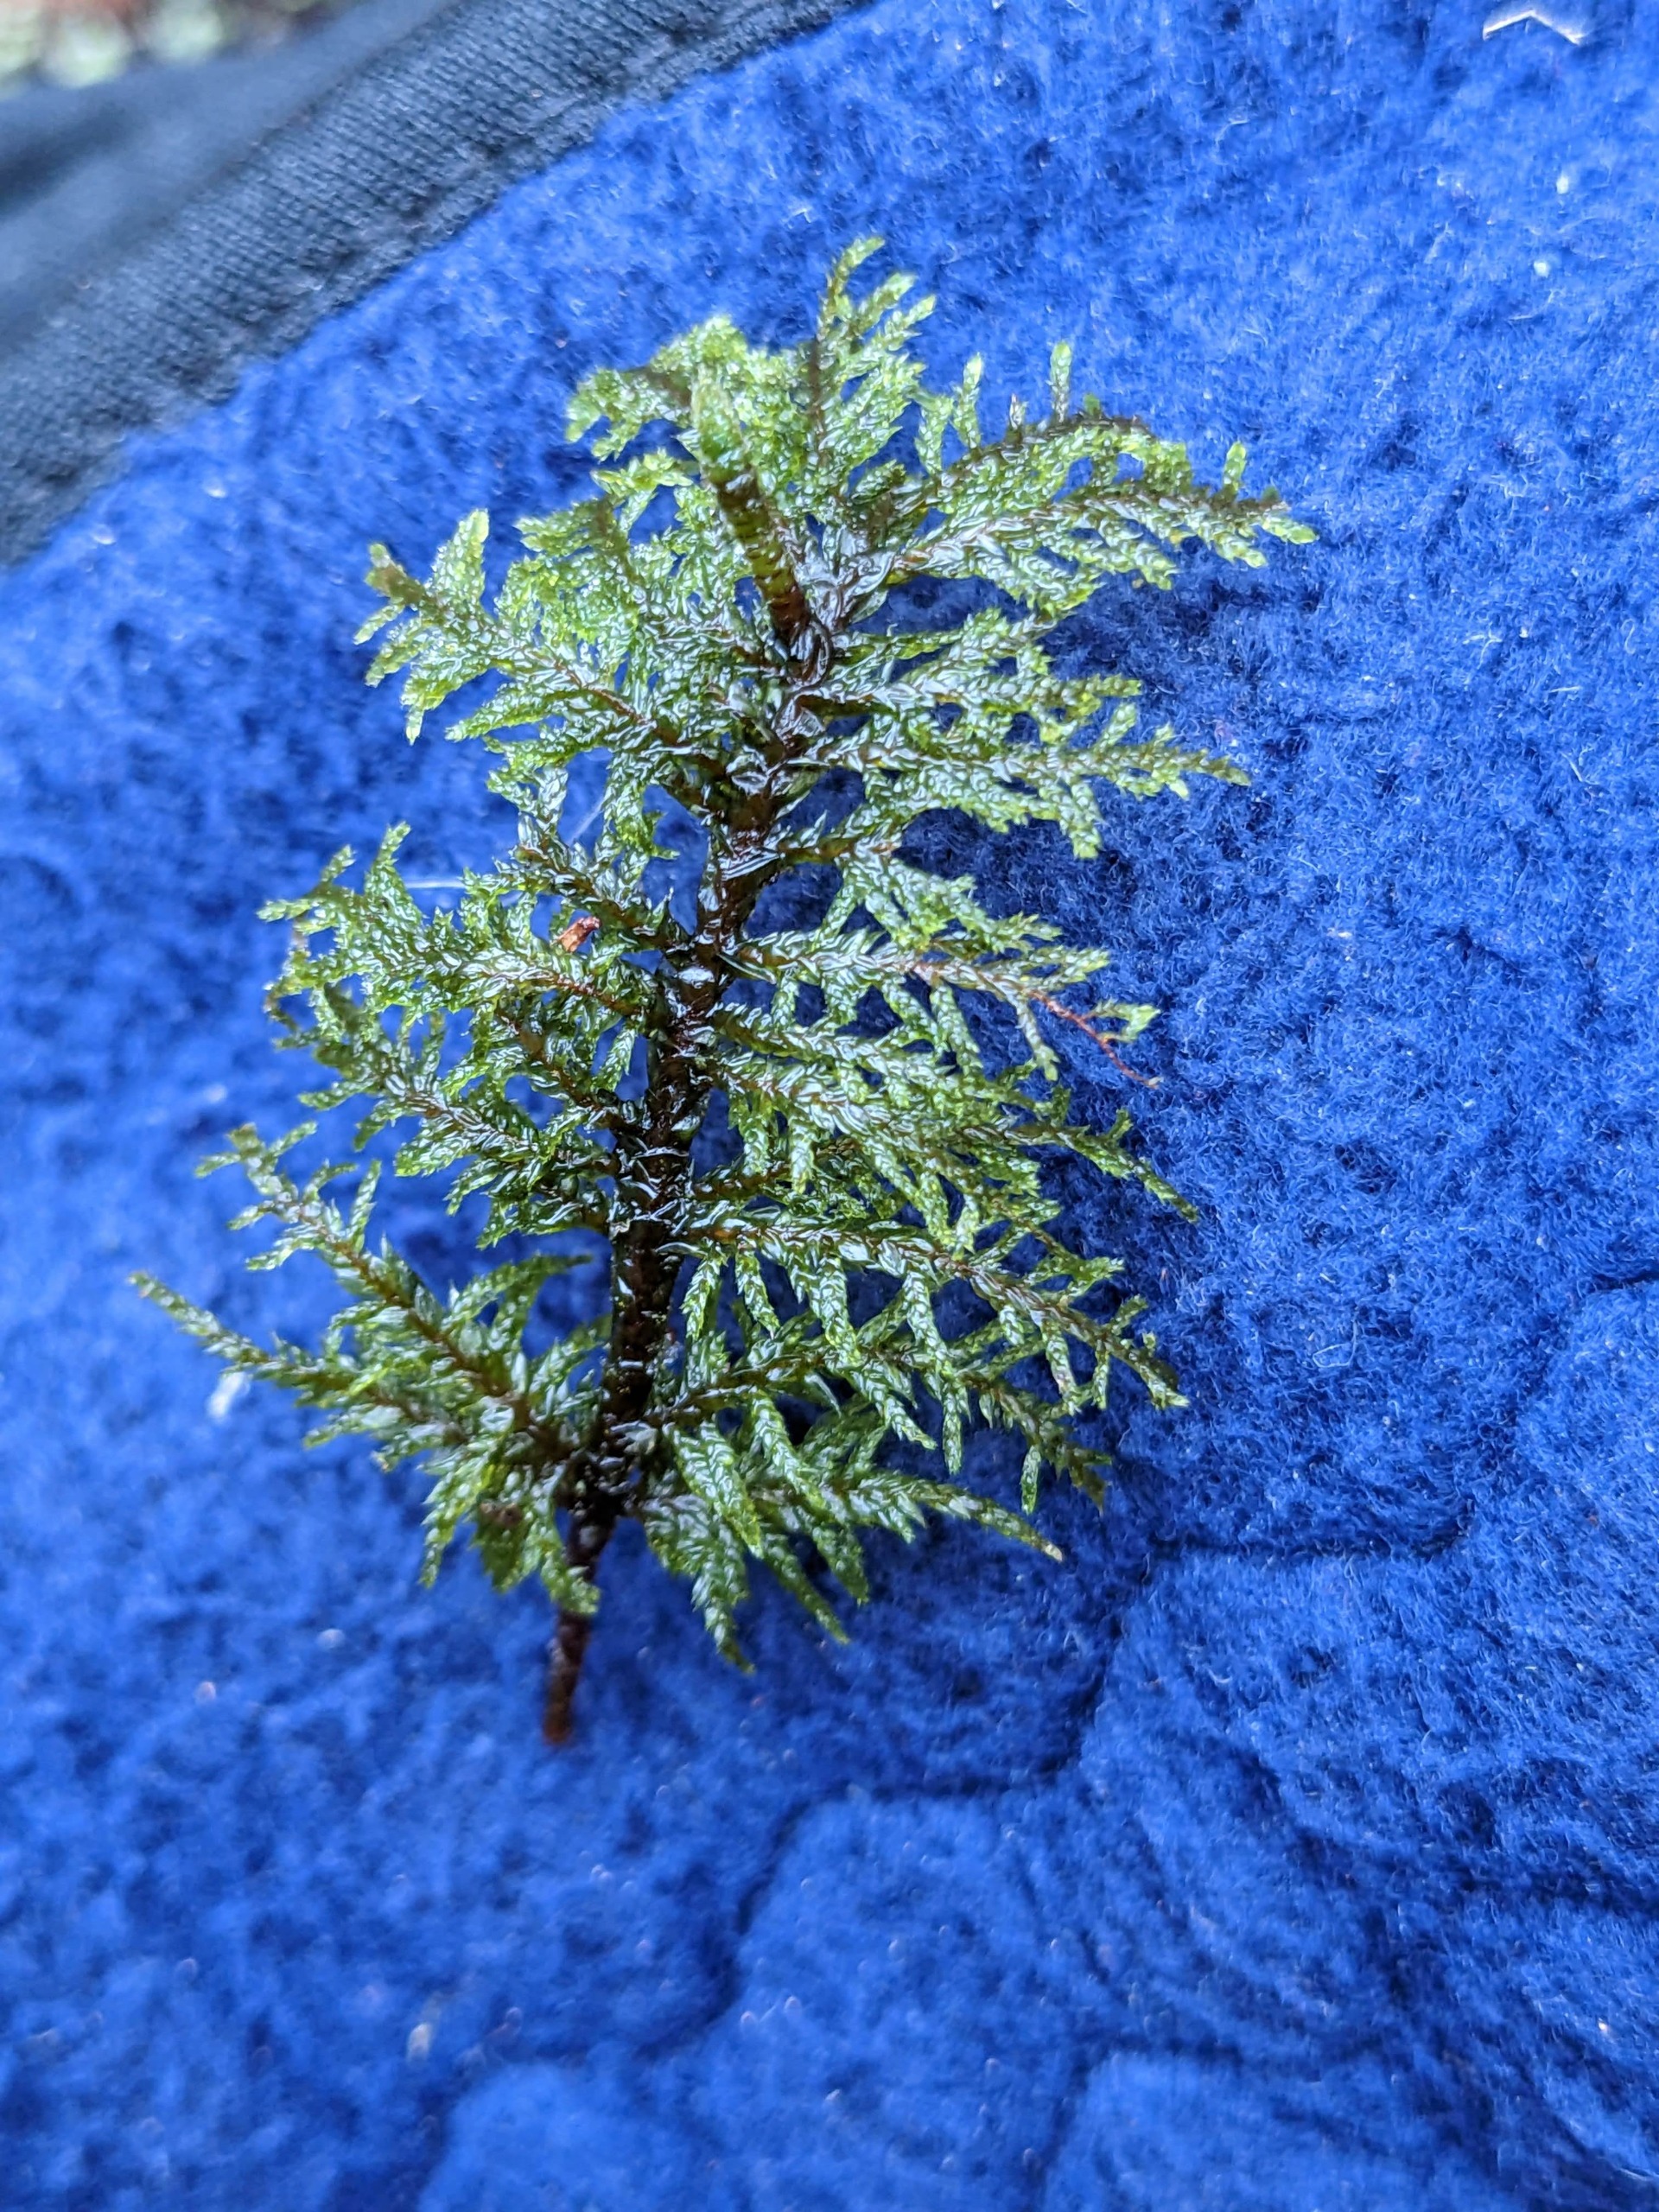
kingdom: Plantae
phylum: Bryophyta
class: Bryopsida
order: Hypnales
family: Hylocomiaceae
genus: Hylocomium
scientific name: Hylocomium splendens
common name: Almindelig etagemos
